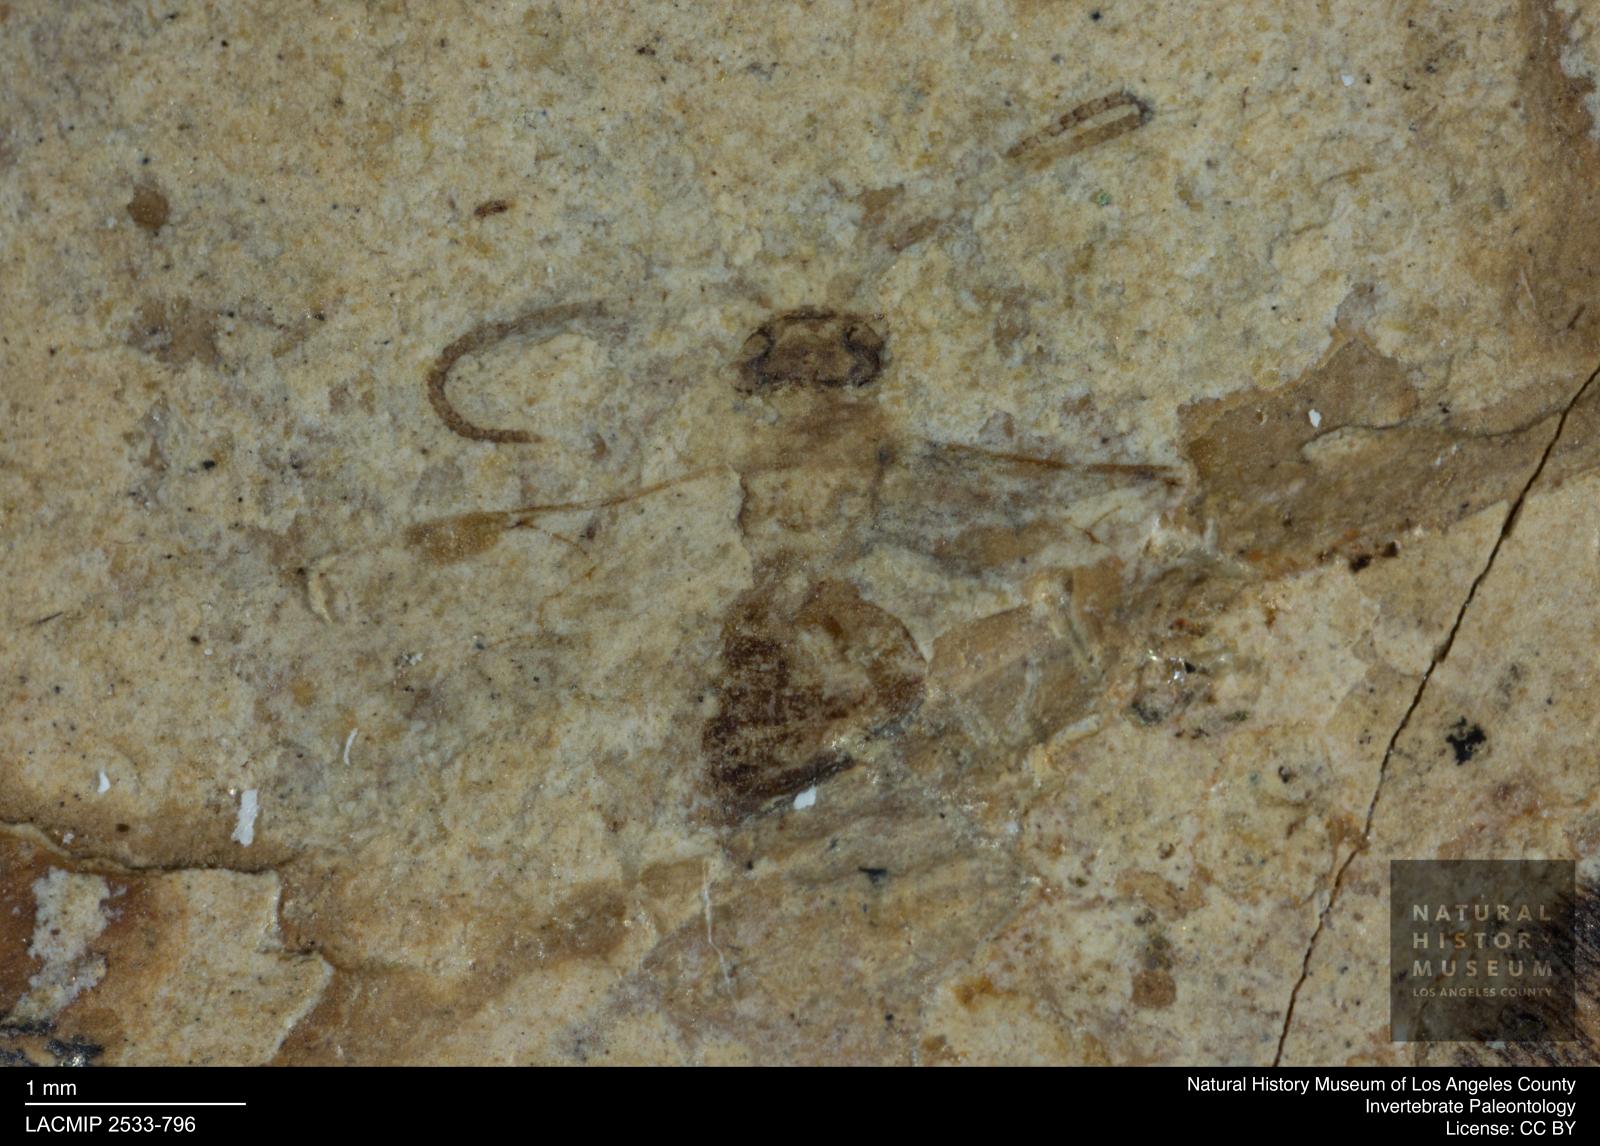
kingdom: Animalia
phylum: Arthropoda
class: Insecta
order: Hymenoptera
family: Braconidae
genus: Blacus
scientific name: Blacus crassicapitatus
